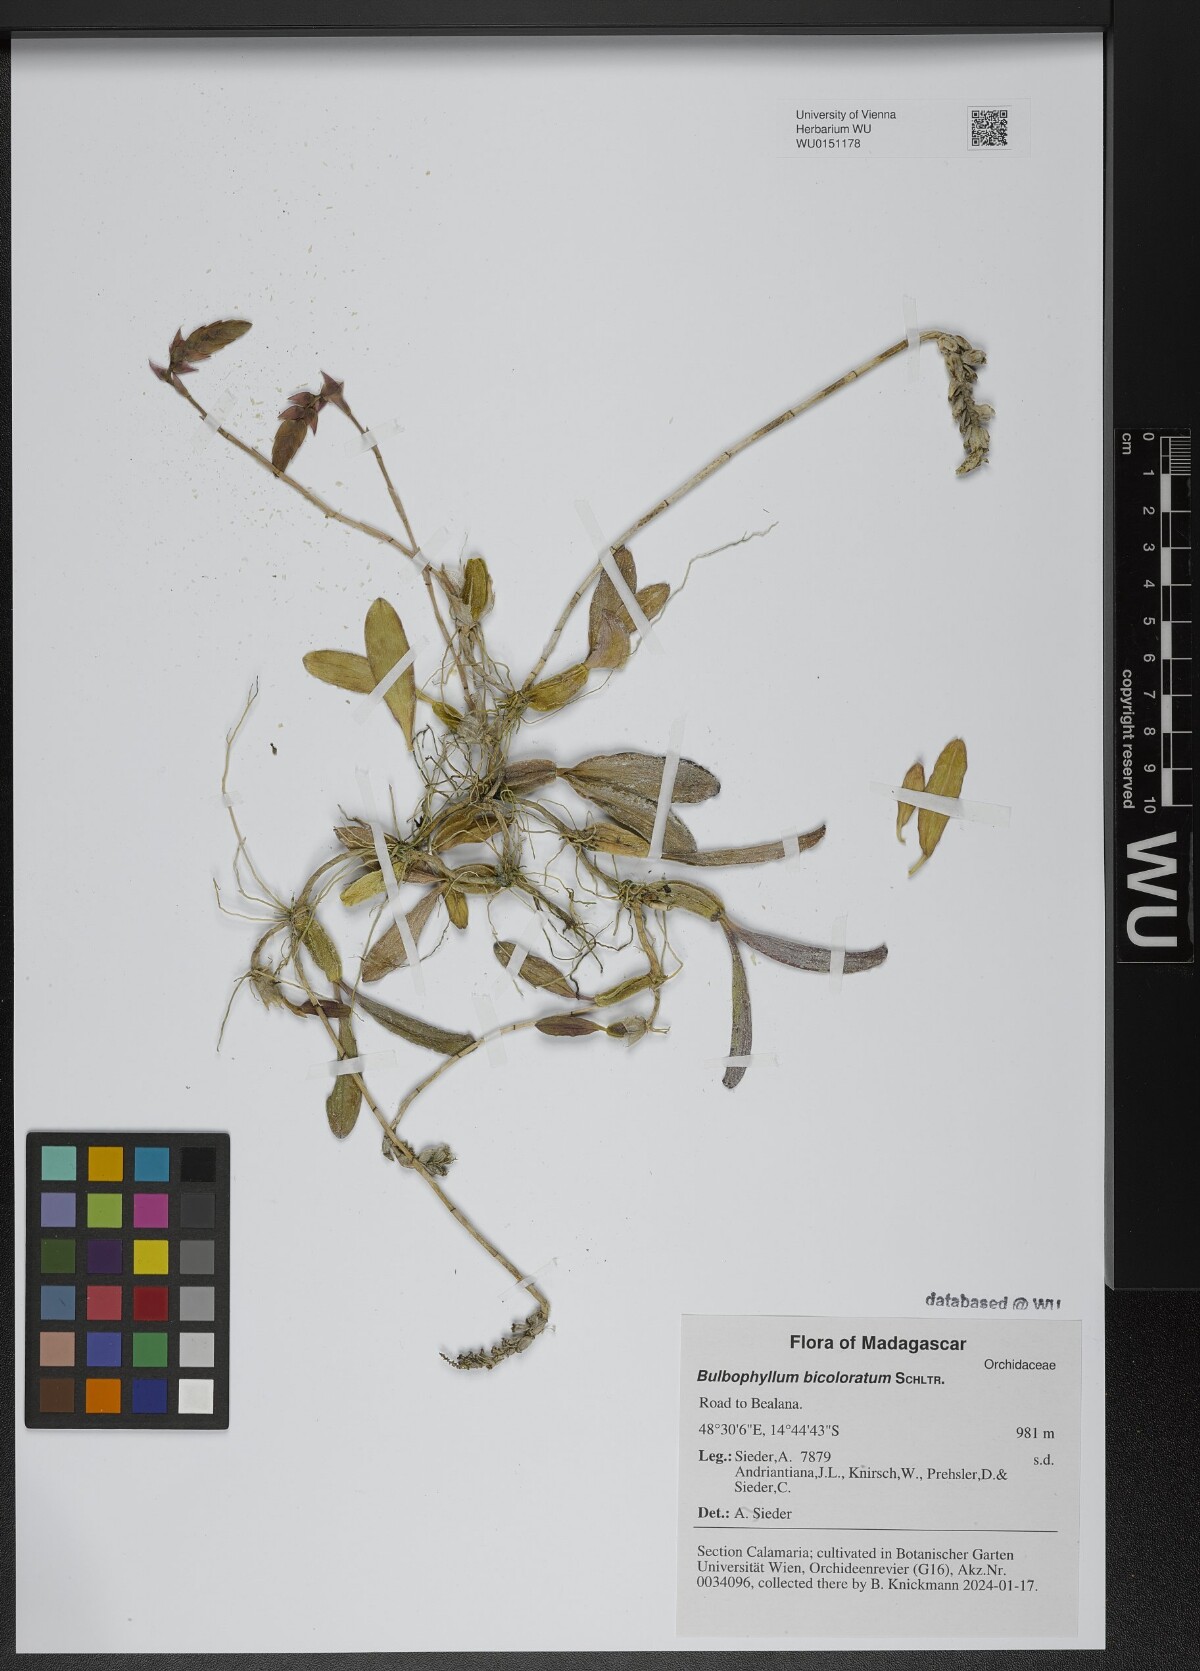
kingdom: Plantae
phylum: Tracheophyta
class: Liliopsida
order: Asparagales
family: Orchidaceae
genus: Bulbophyllum
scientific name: Bulbophyllum bicoloratum
